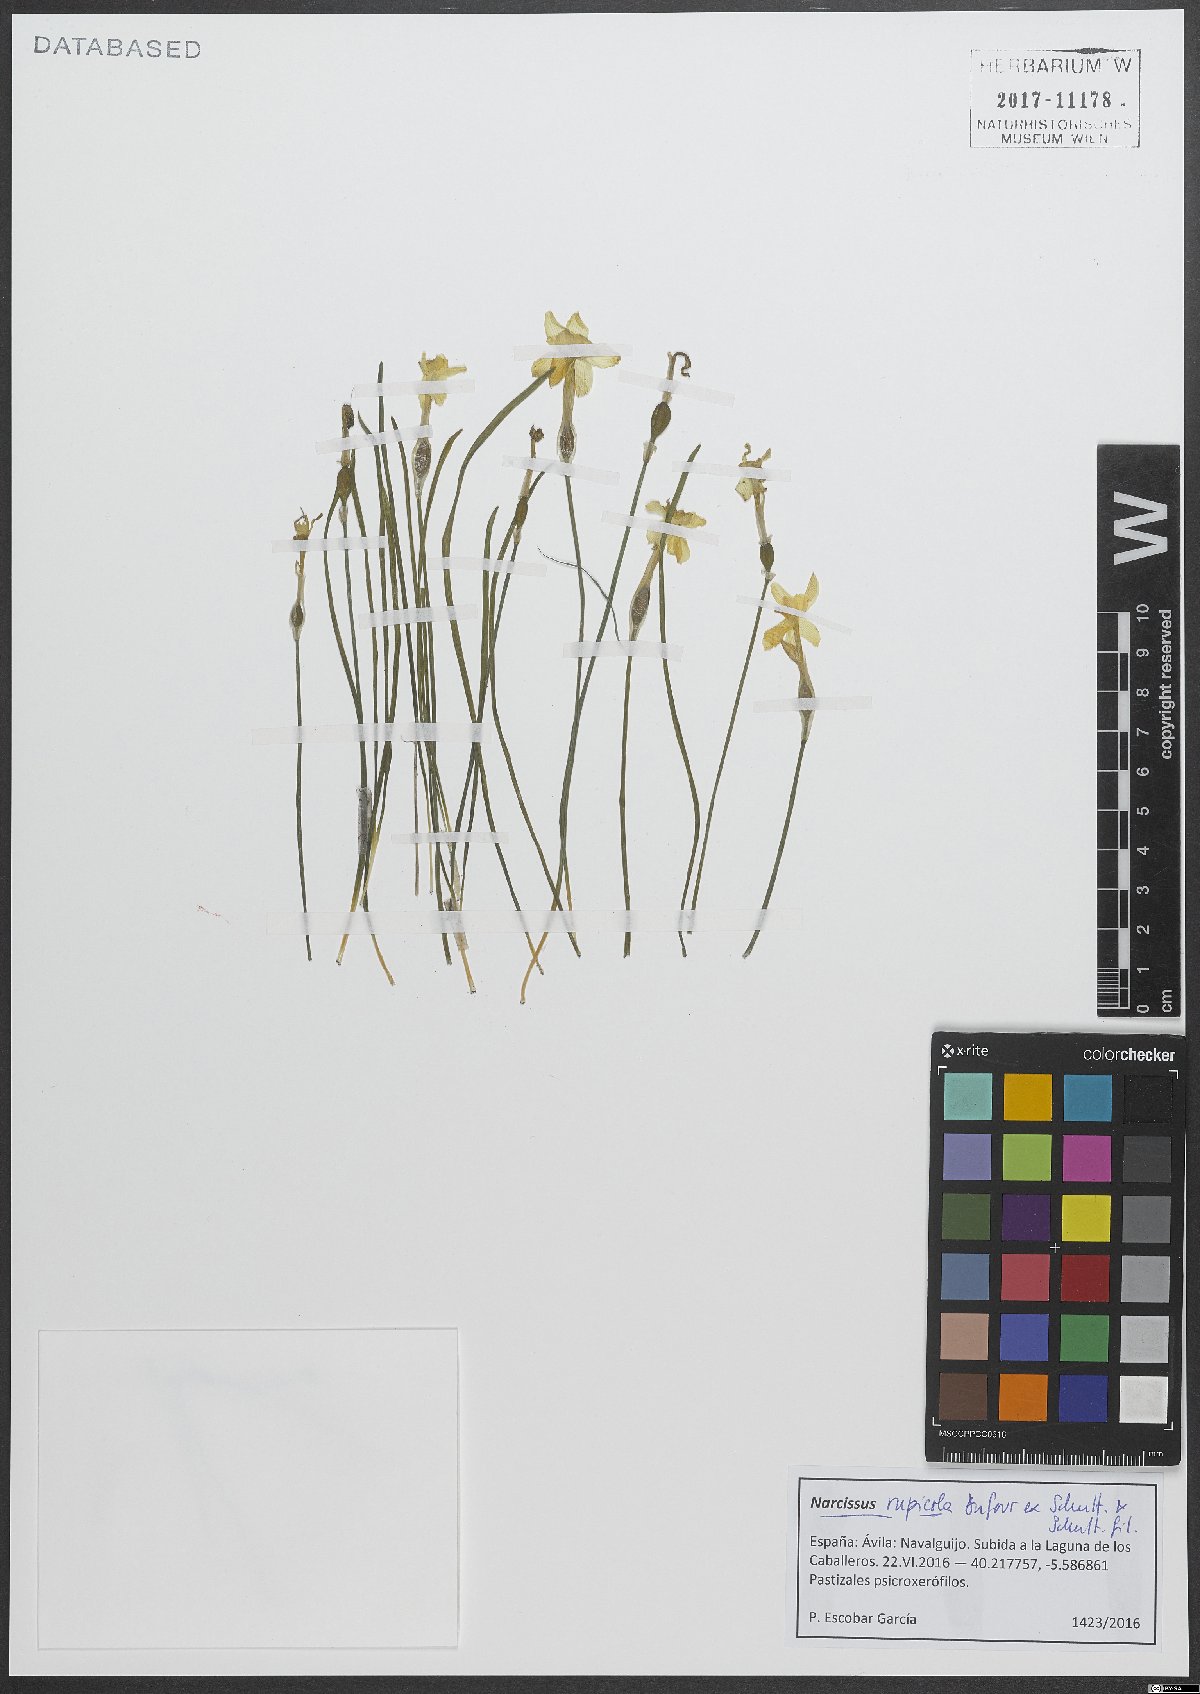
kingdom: Plantae
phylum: Tracheophyta
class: Liliopsida
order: Asparagales
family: Amaryllidaceae
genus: Narcissus
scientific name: Narcissus rupicola
